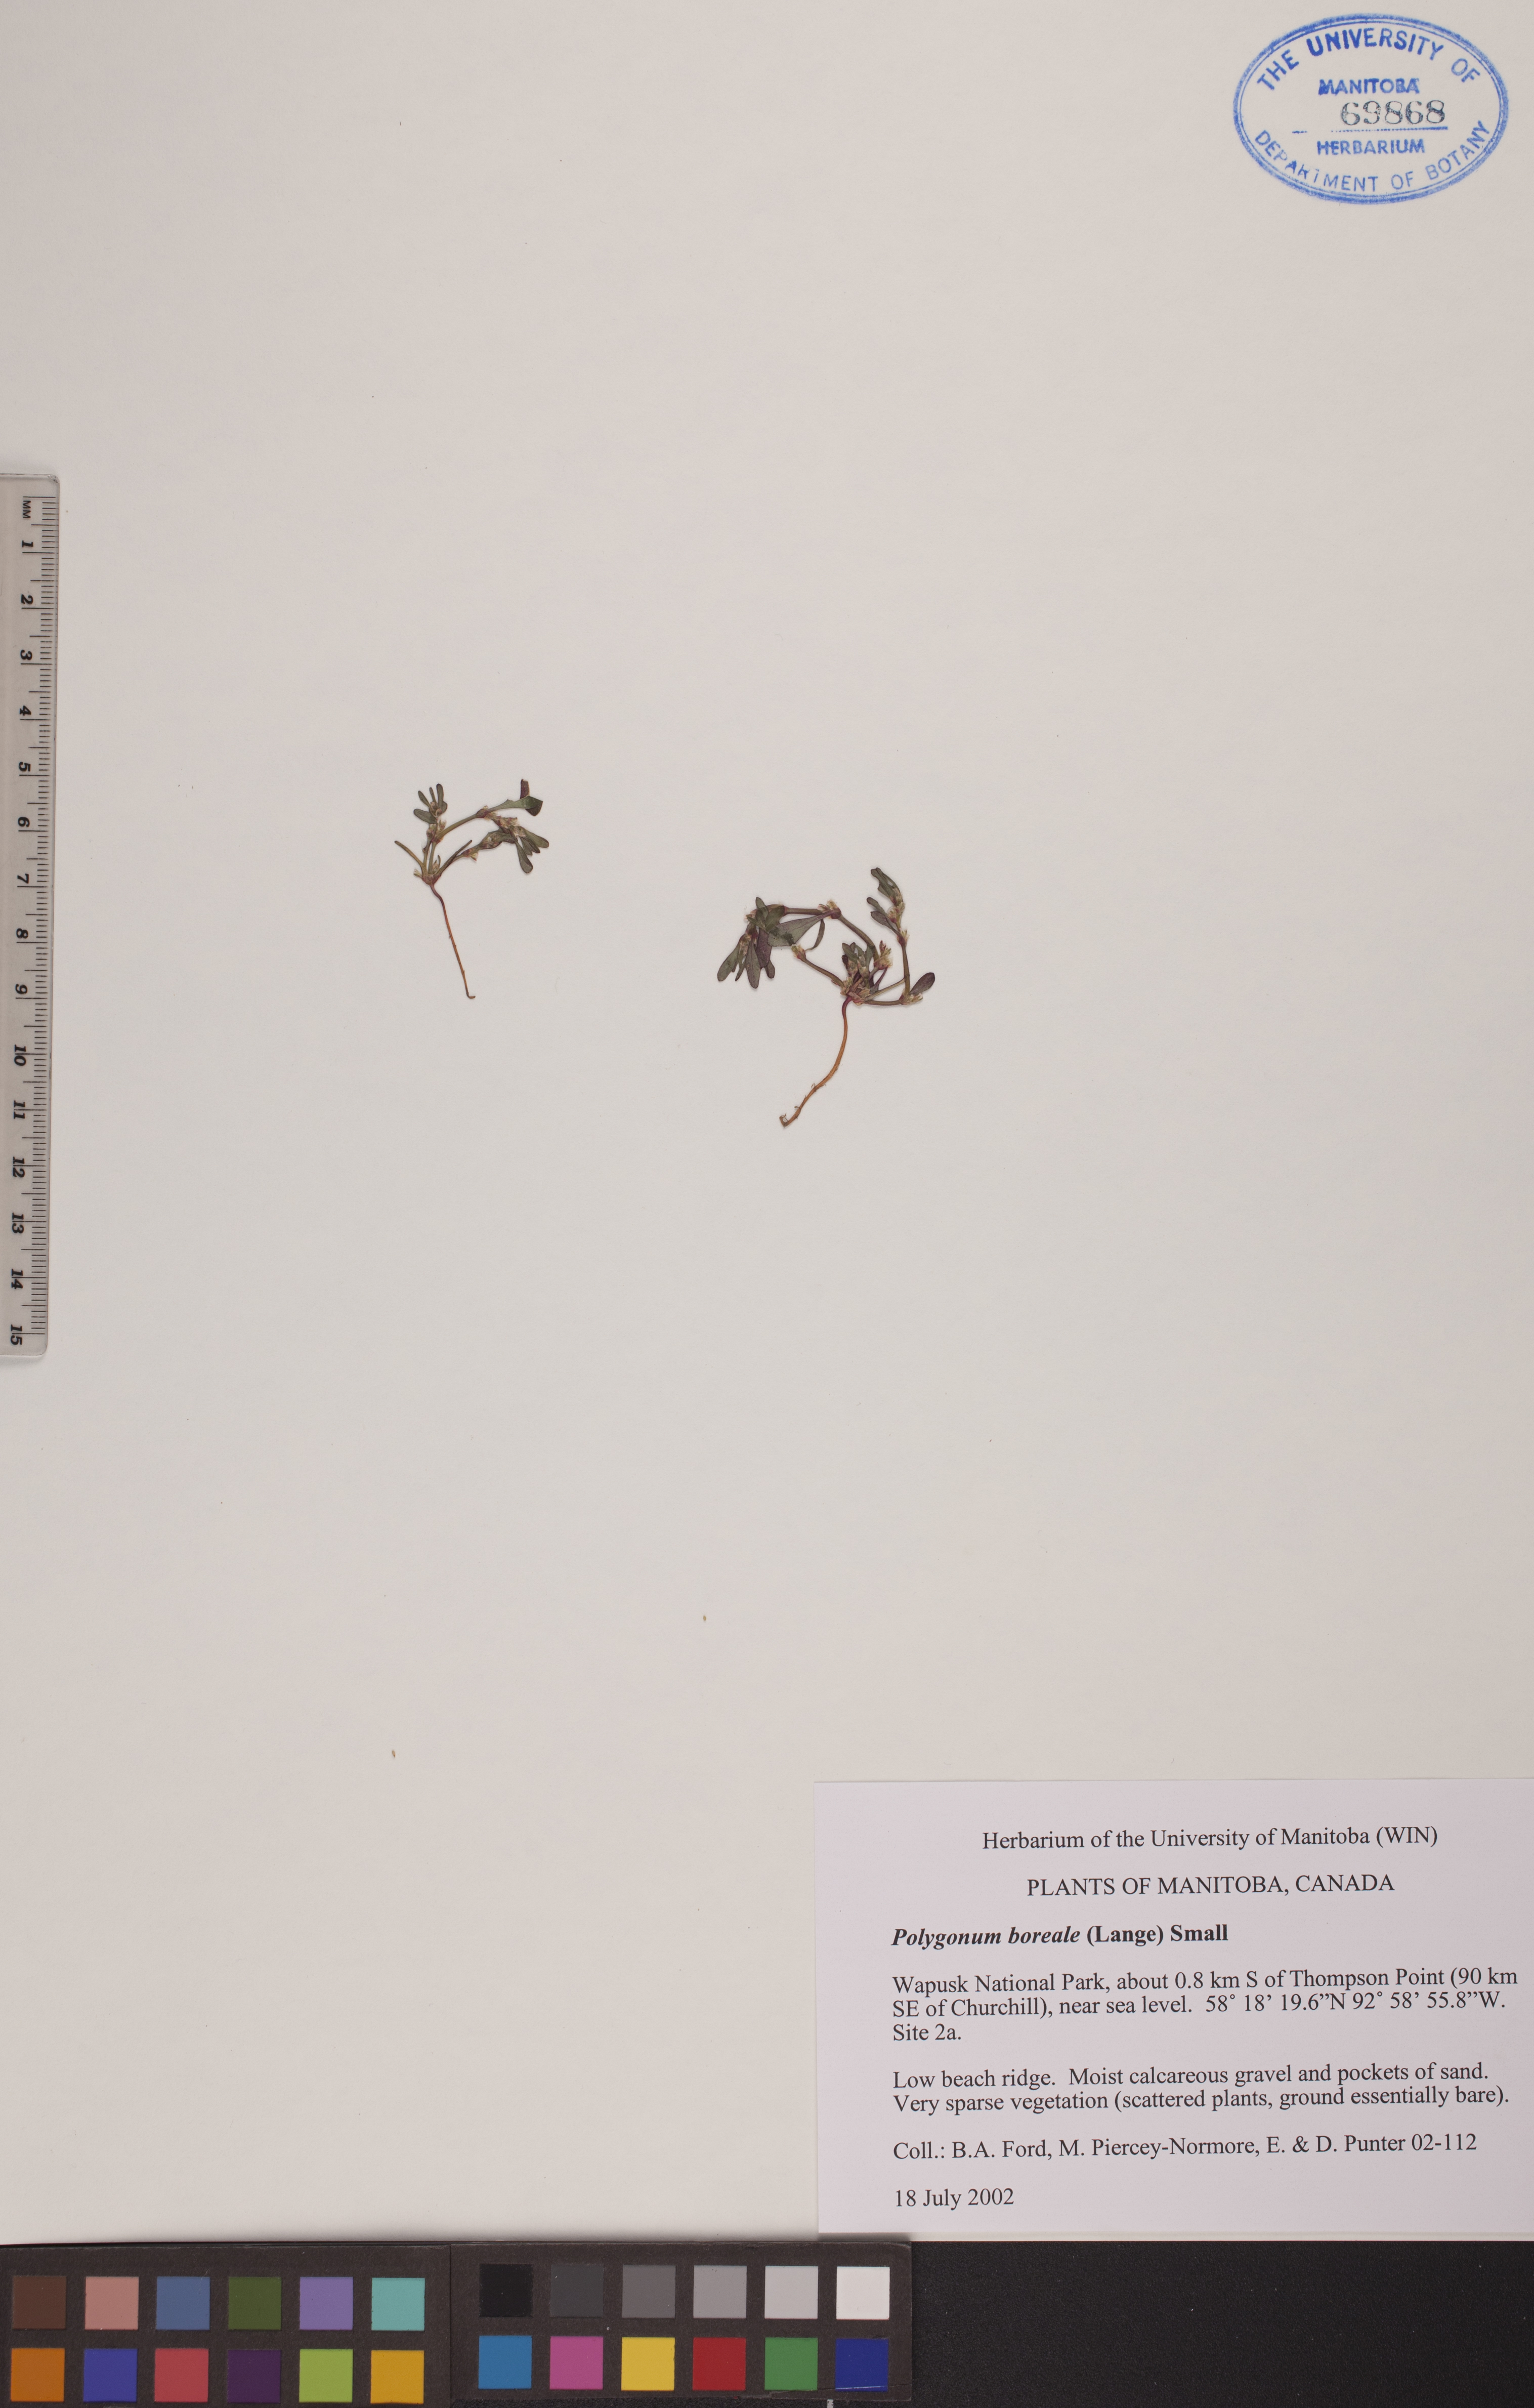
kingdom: Plantae
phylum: Tracheophyta
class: Magnoliopsida
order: Caryophyllales
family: Polygonaceae
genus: Polygonum
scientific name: Polygonum boreale
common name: Northern knotgrass
